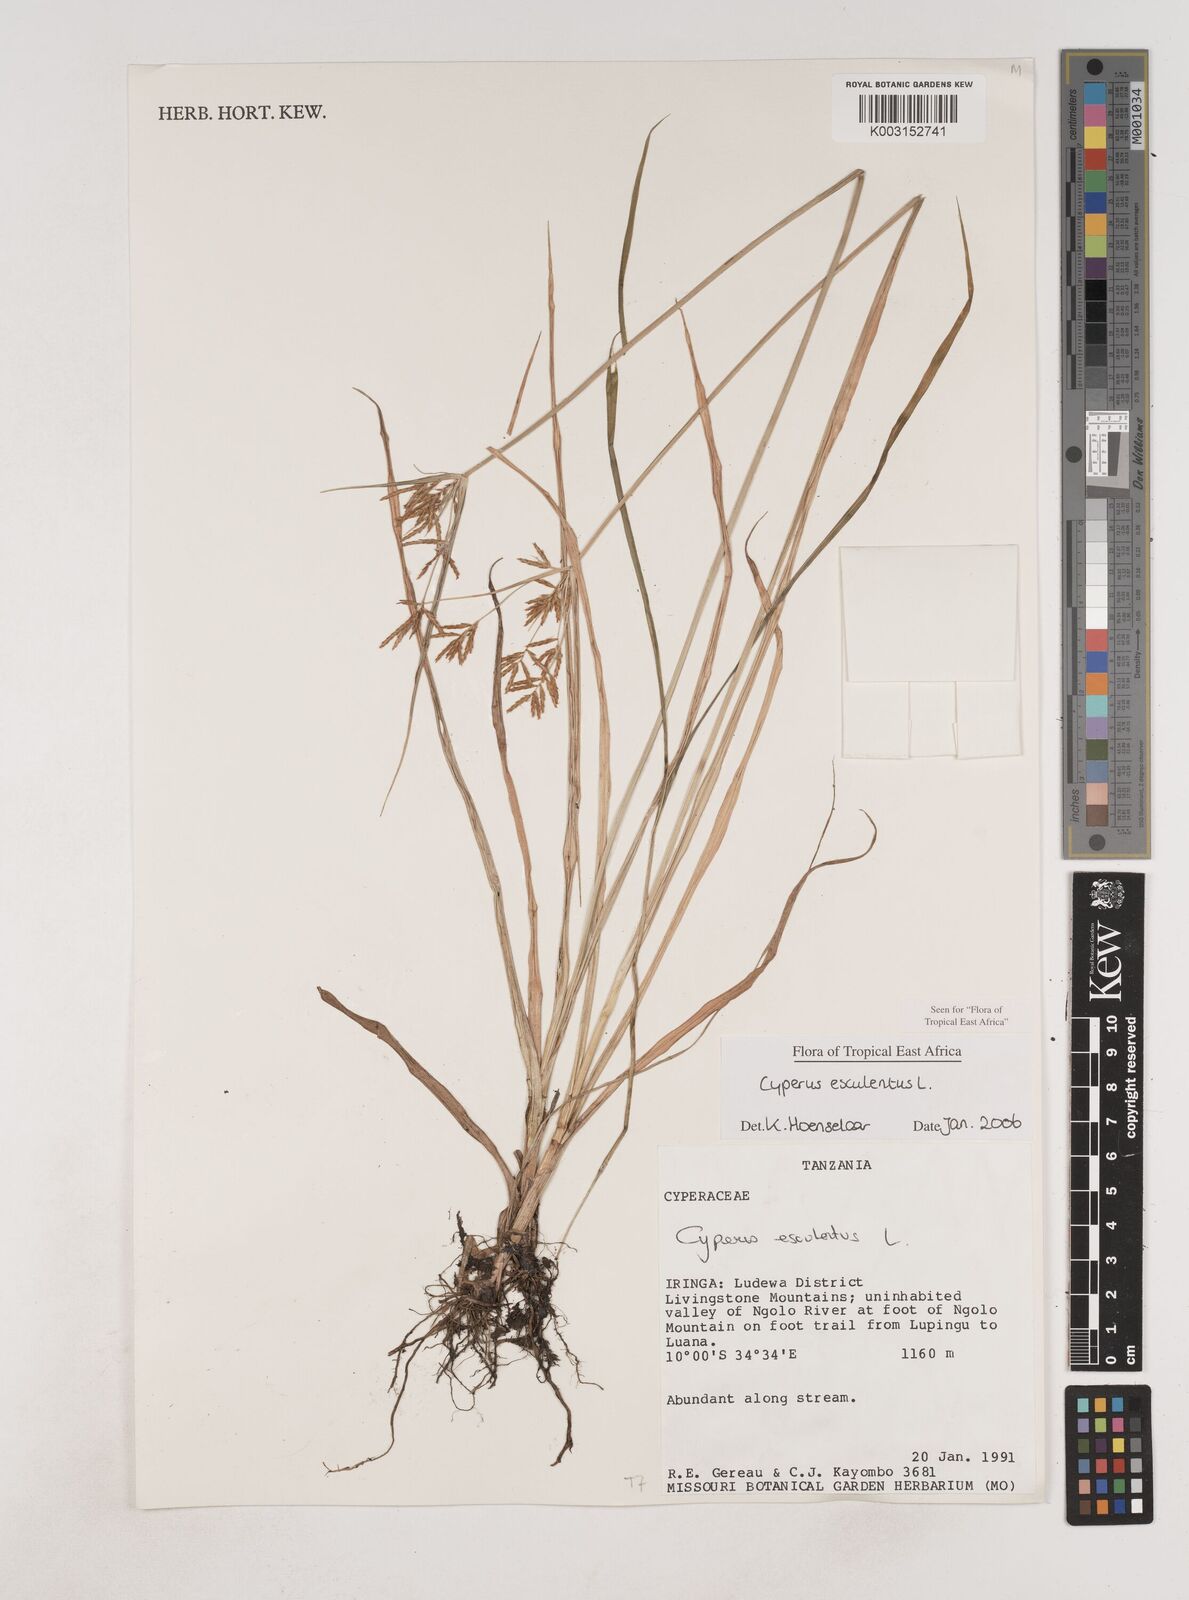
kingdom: Plantae
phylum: Tracheophyta
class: Liliopsida
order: Poales
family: Cyperaceae
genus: Cyperus
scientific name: Cyperus esculentus
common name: Yellow nutsedge
